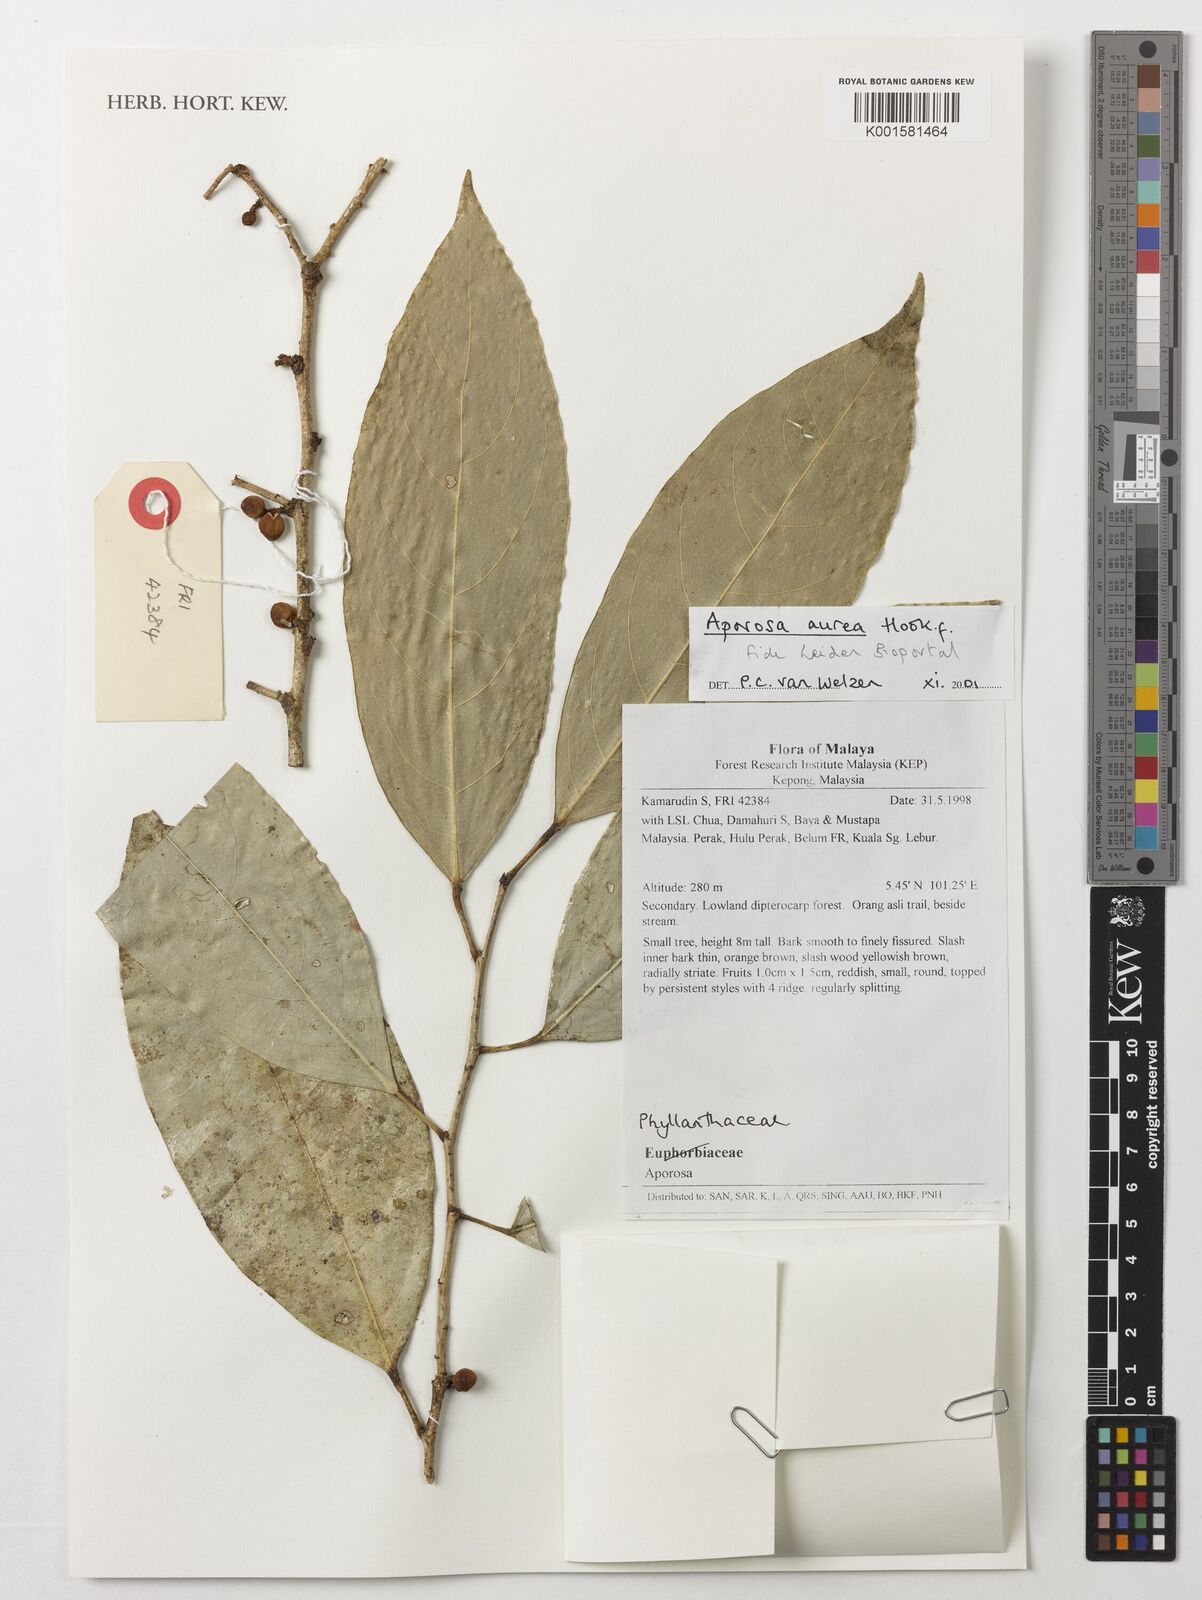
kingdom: Plantae
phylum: Tracheophyta
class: Magnoliopsida
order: Malpighiales
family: Phyllanthaceae
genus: Aporosa
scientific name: Aporosa aurea
